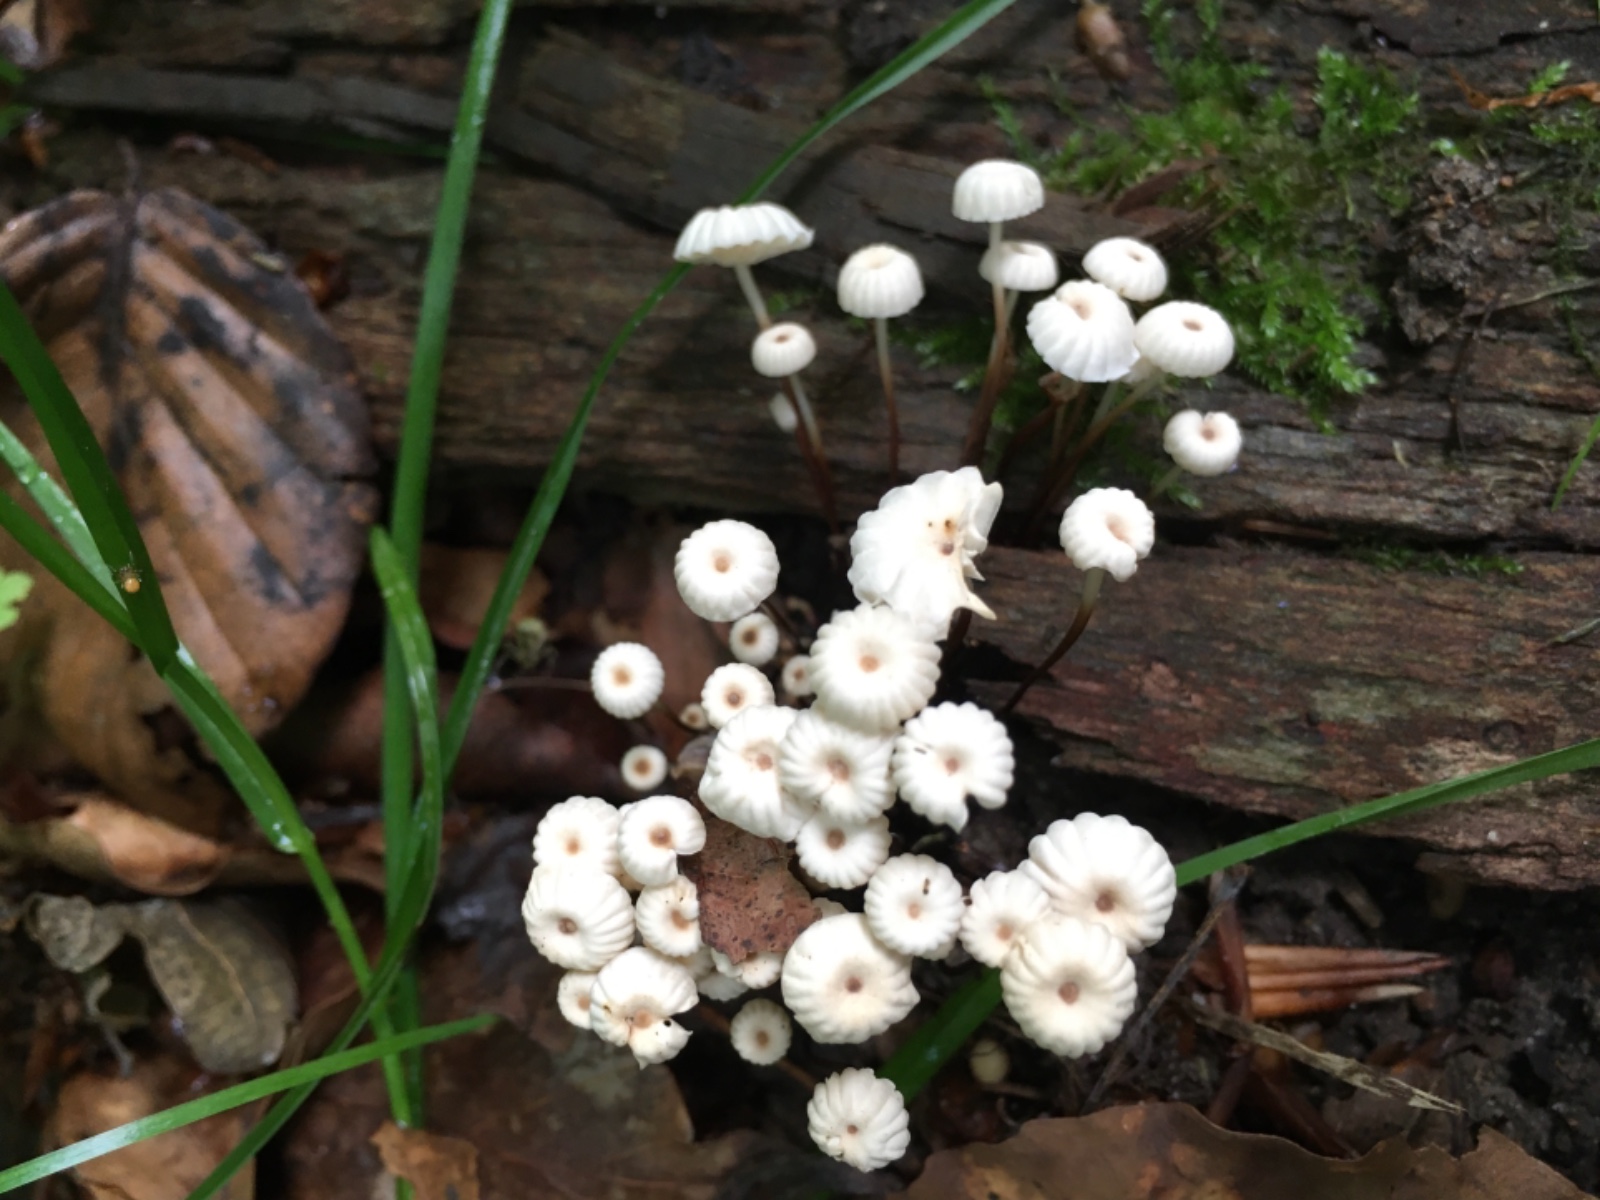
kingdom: Fungi
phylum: Basidiomycota
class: Agaricomycetes
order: Agaricales
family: Marasmiaceae
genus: Marasmius
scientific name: Marasmius rotula
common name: hjul-bruskhat
